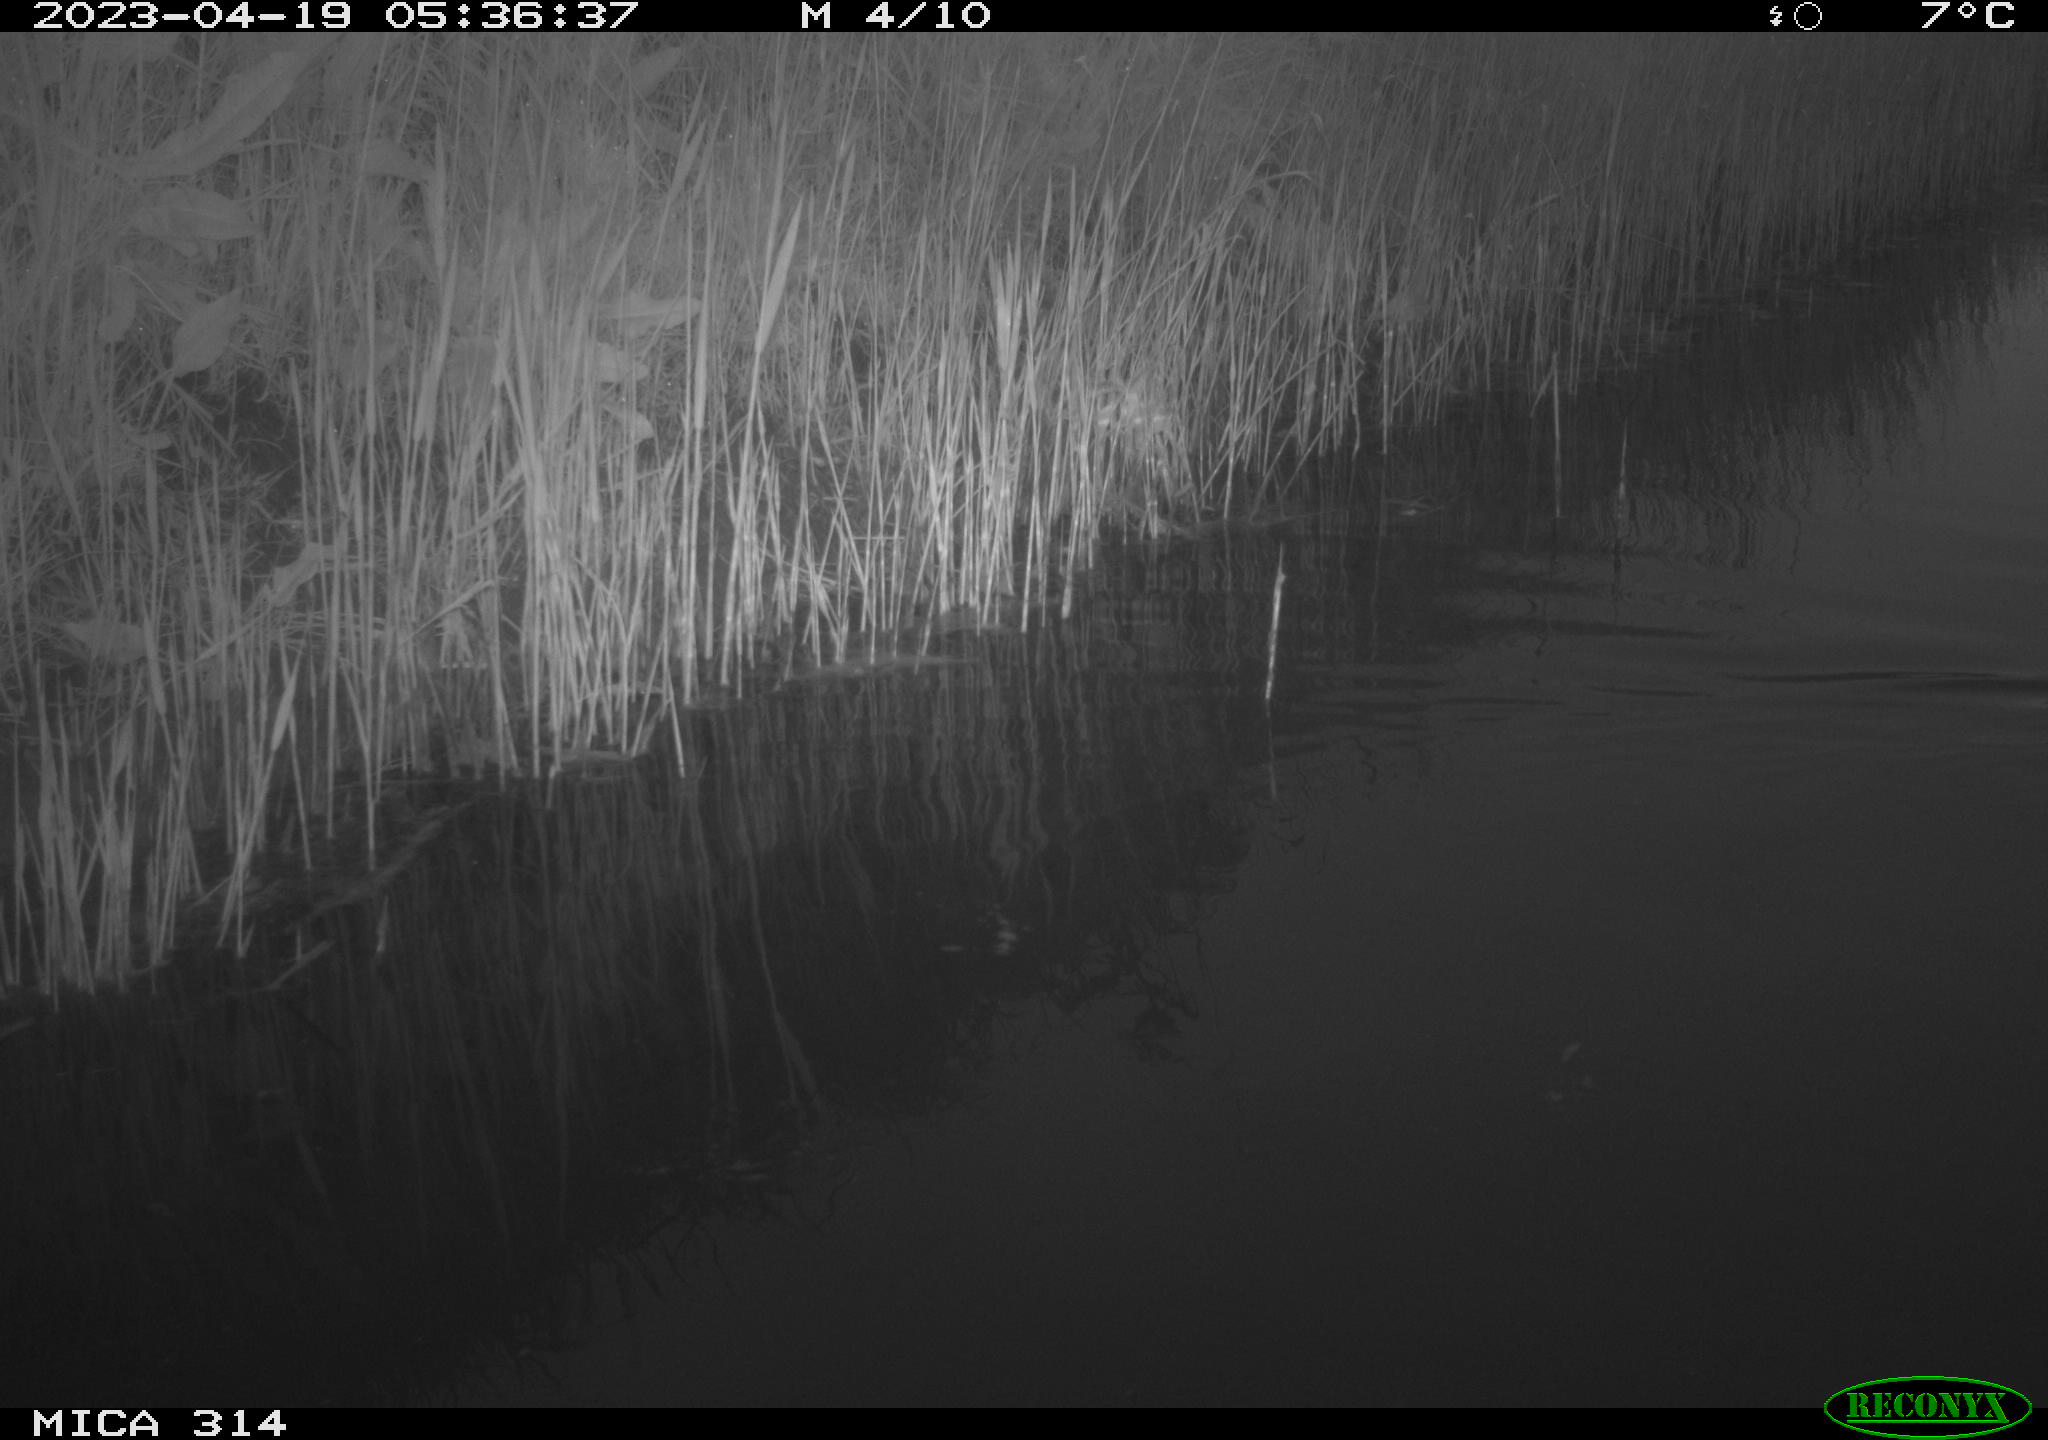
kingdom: Animalia
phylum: Chordata
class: Aves
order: Gruiformes
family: Rallidae
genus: Fulica
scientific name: Fulica atra
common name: Eurasian coot
